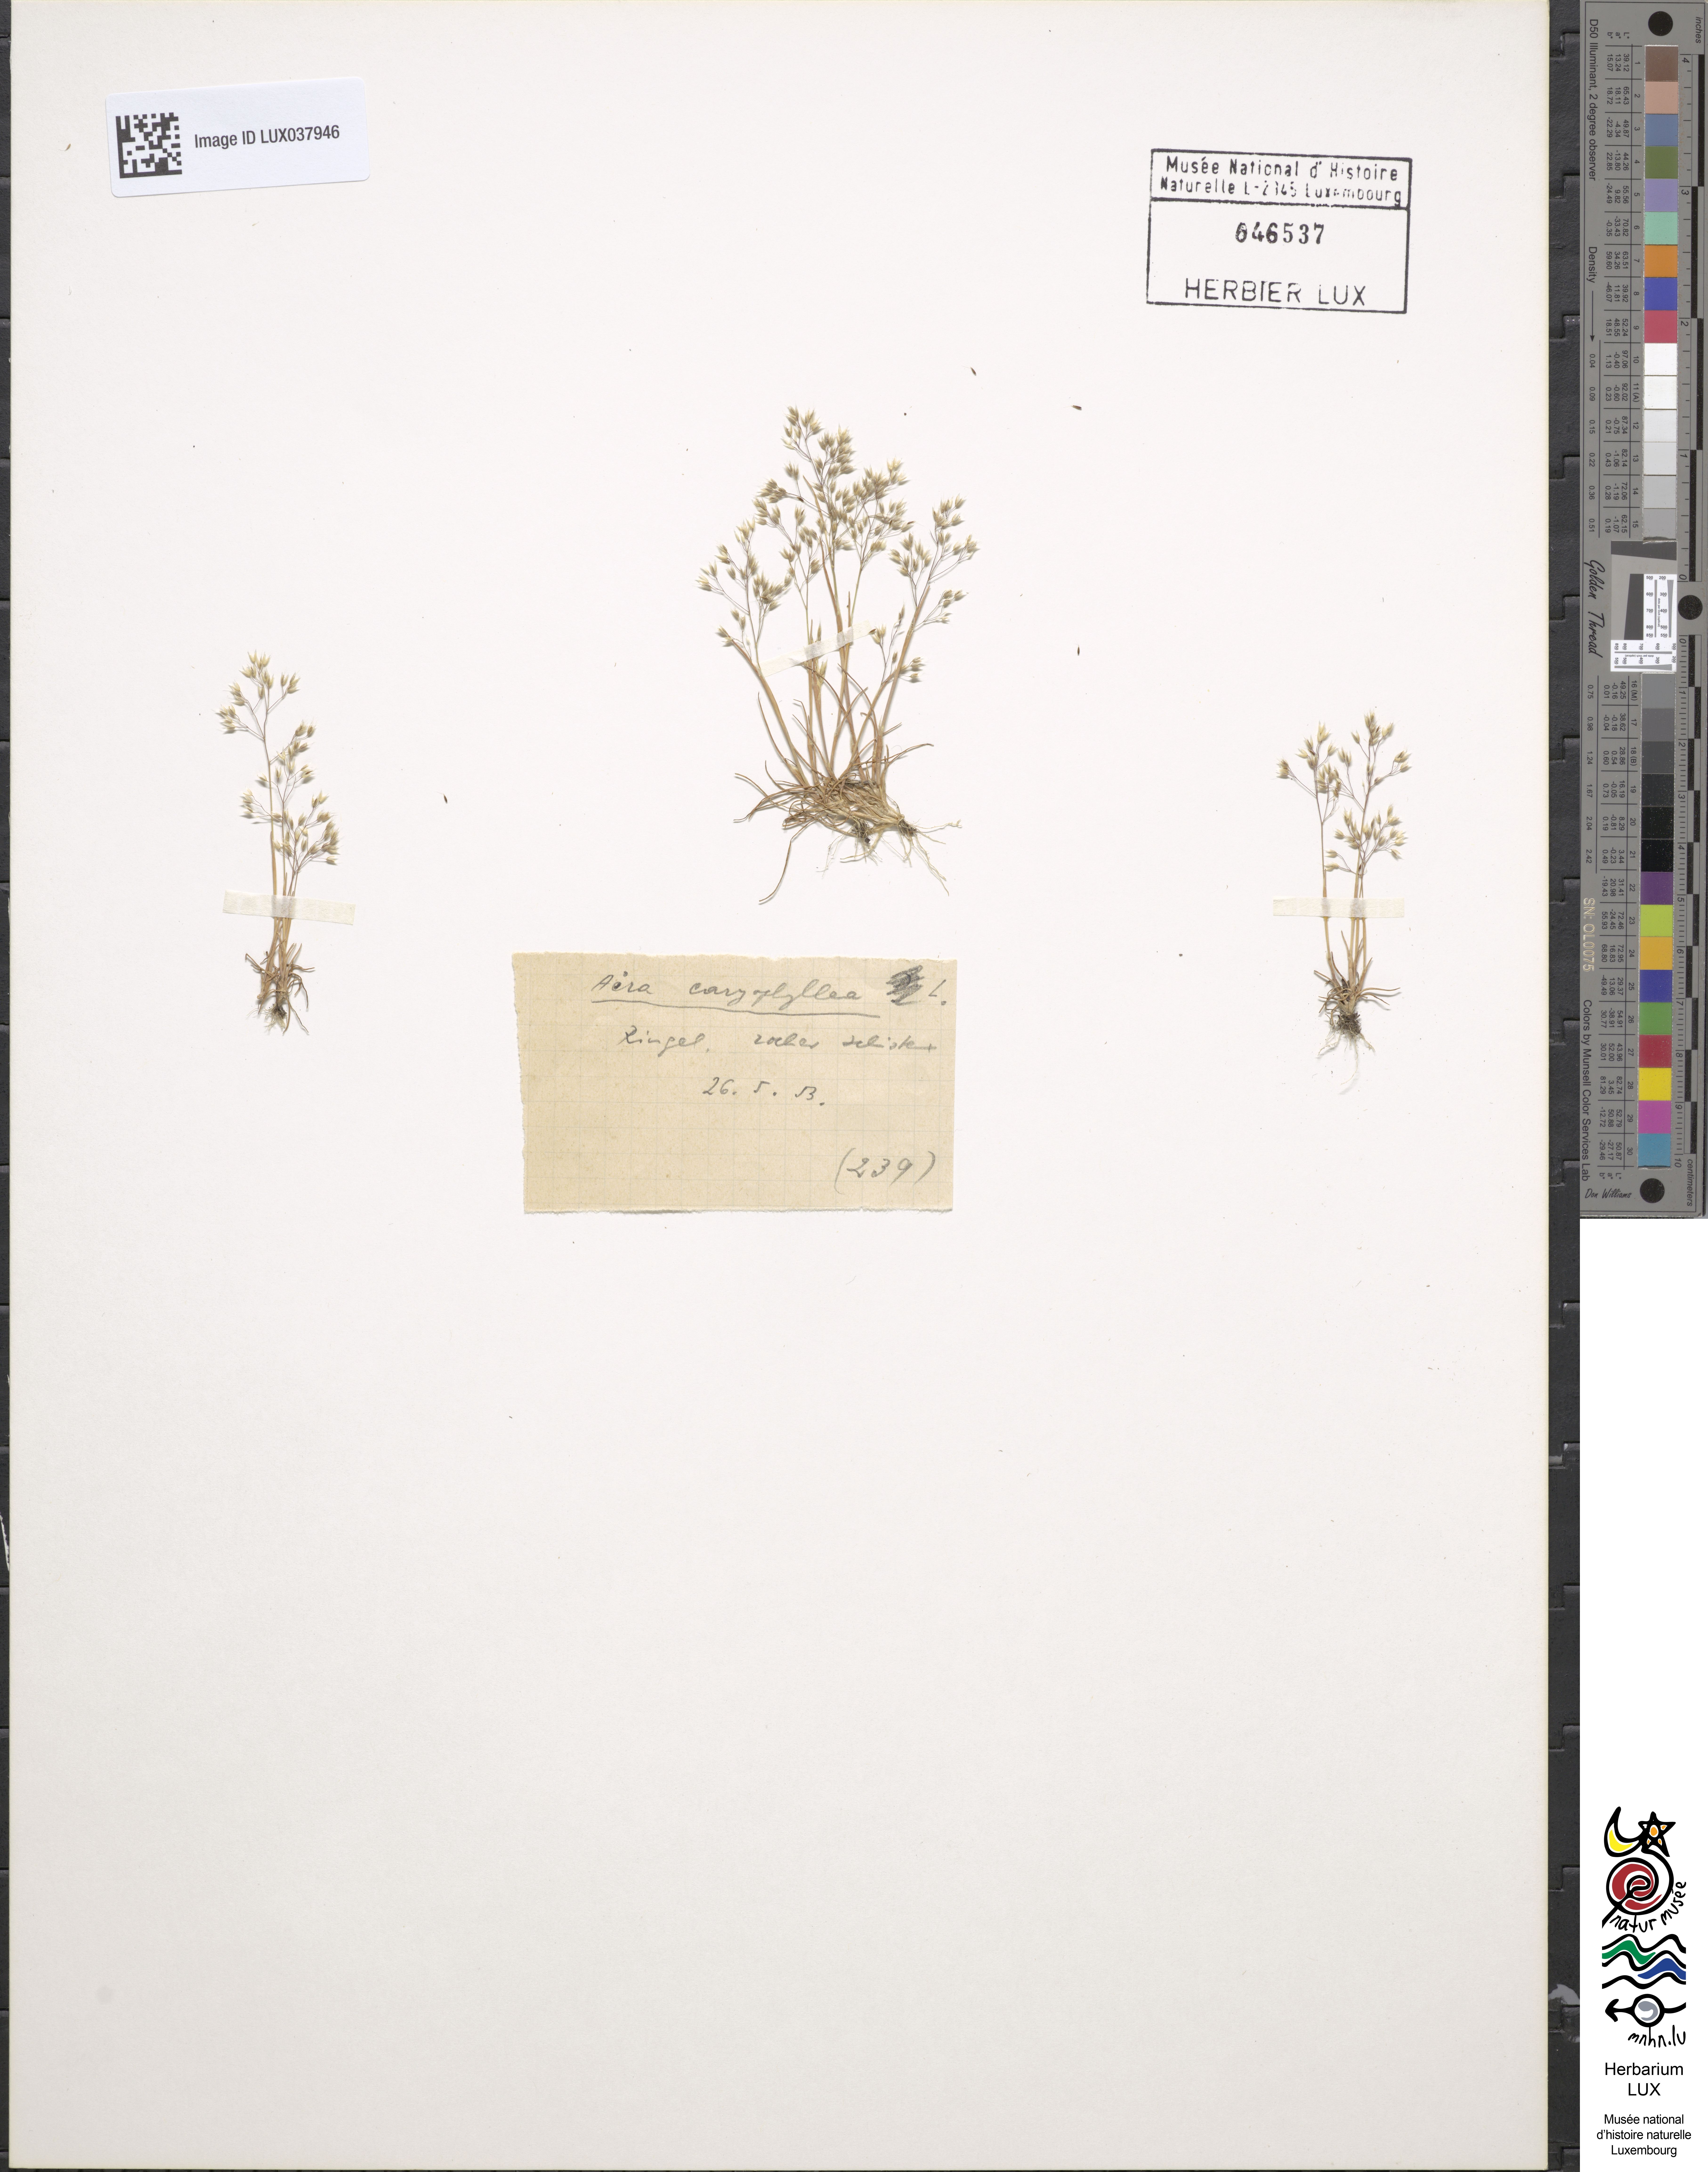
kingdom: Plantae
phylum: Tracheophyta
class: Liliopsida
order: Poales
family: Poaceae
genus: Aira
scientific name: Aira caryophyllea
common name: Silver hairgrass
